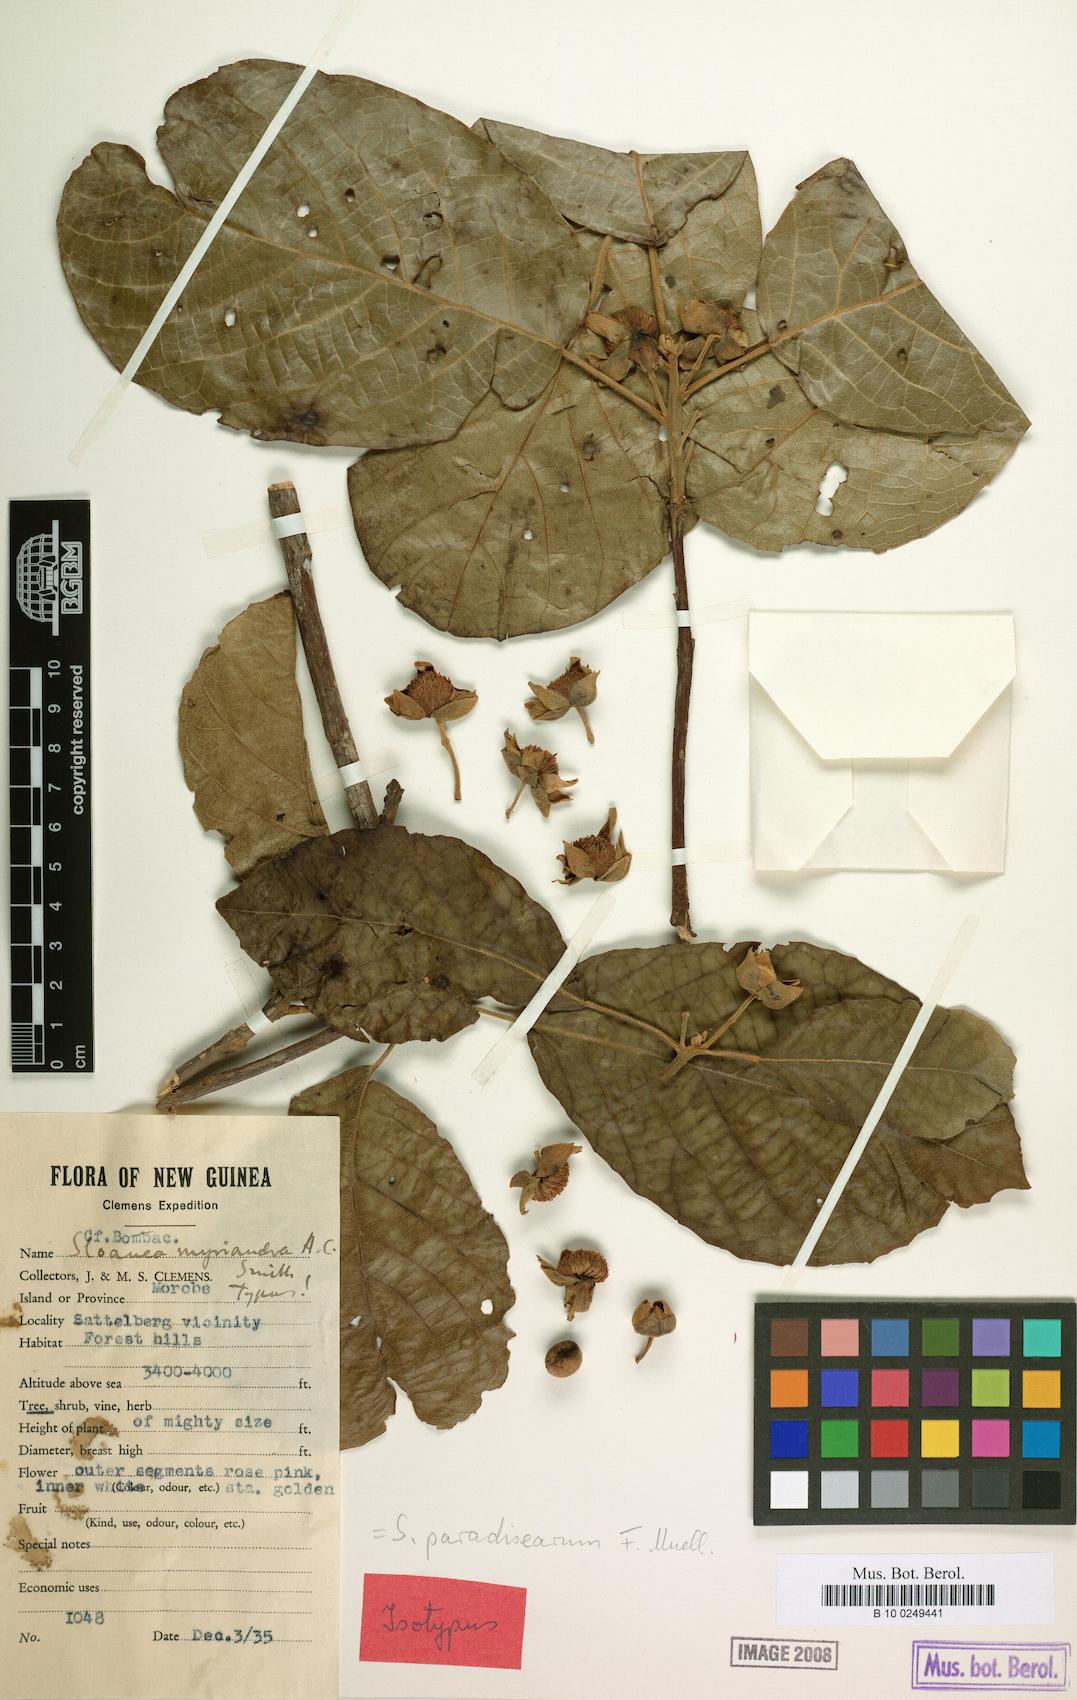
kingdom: Plantae
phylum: Tracheophyta
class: Magnoliopsida
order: Oxalidales
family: Elaeocarpaceae
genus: Sloanea
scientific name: Sloanea paradisearum
